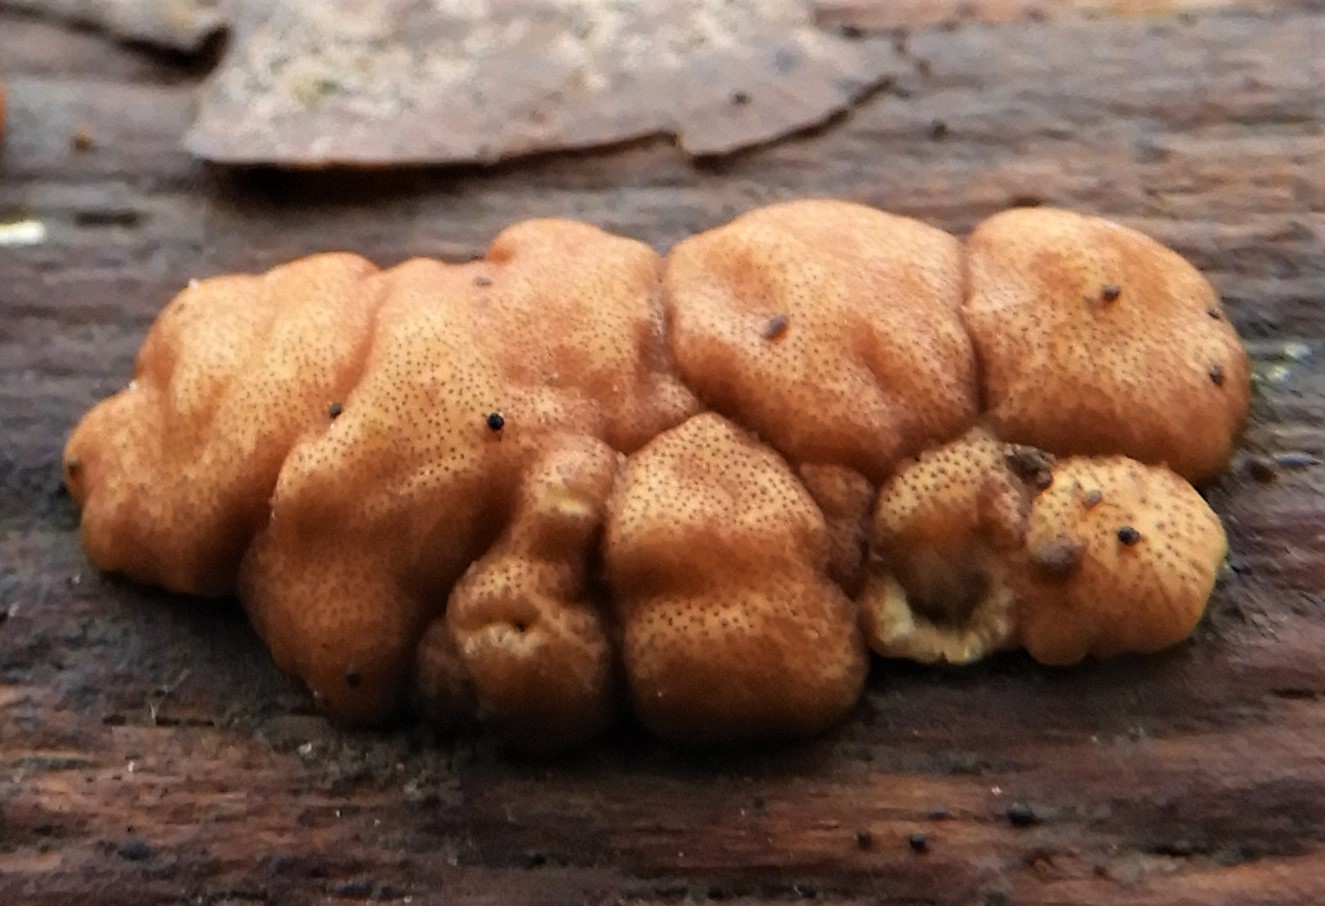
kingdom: Fungi
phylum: Ascomycota
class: Sordariomycetes
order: Hypocreales
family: Hypocreaceae
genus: Trichoderma
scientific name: Trichoderma europaeum
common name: rosabrun kødkerne
